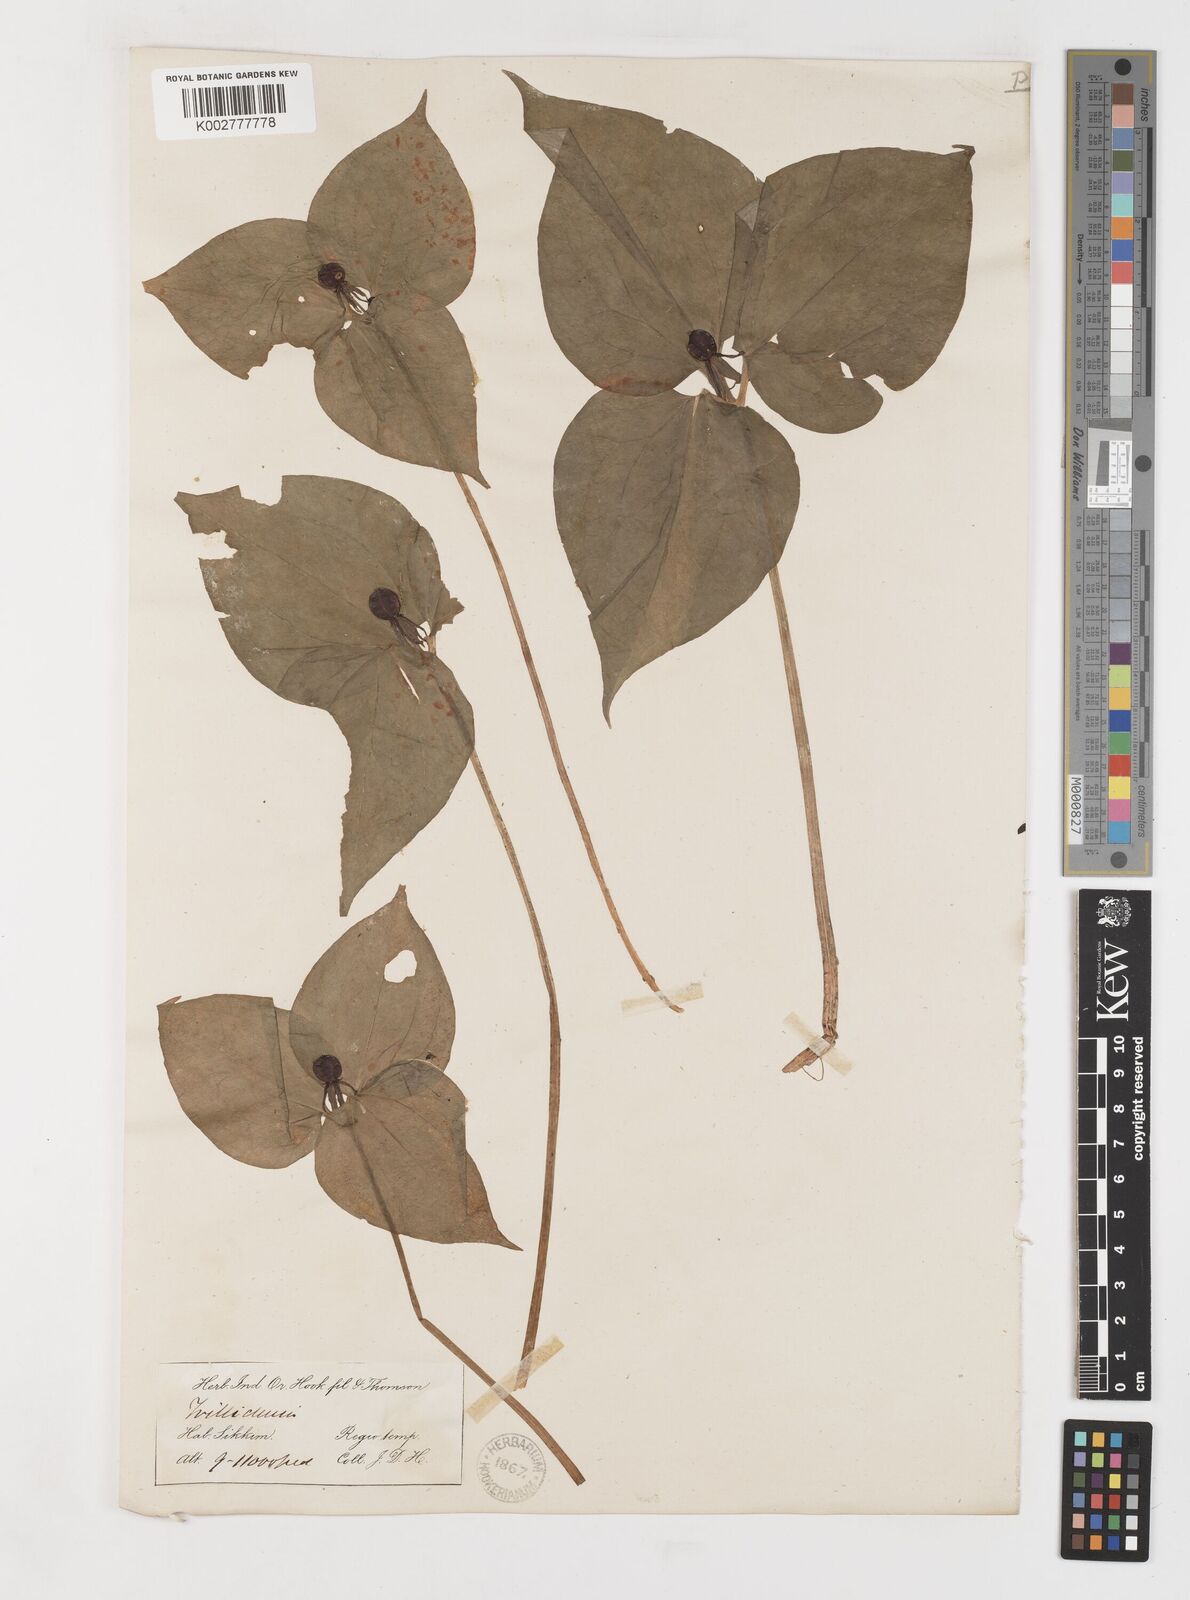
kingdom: Plantae
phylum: Tracheophyta
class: Liliopsida
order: Liliales
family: Melanthiaceae
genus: Trillium
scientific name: Trillium govanianum
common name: Himalayan trillium
